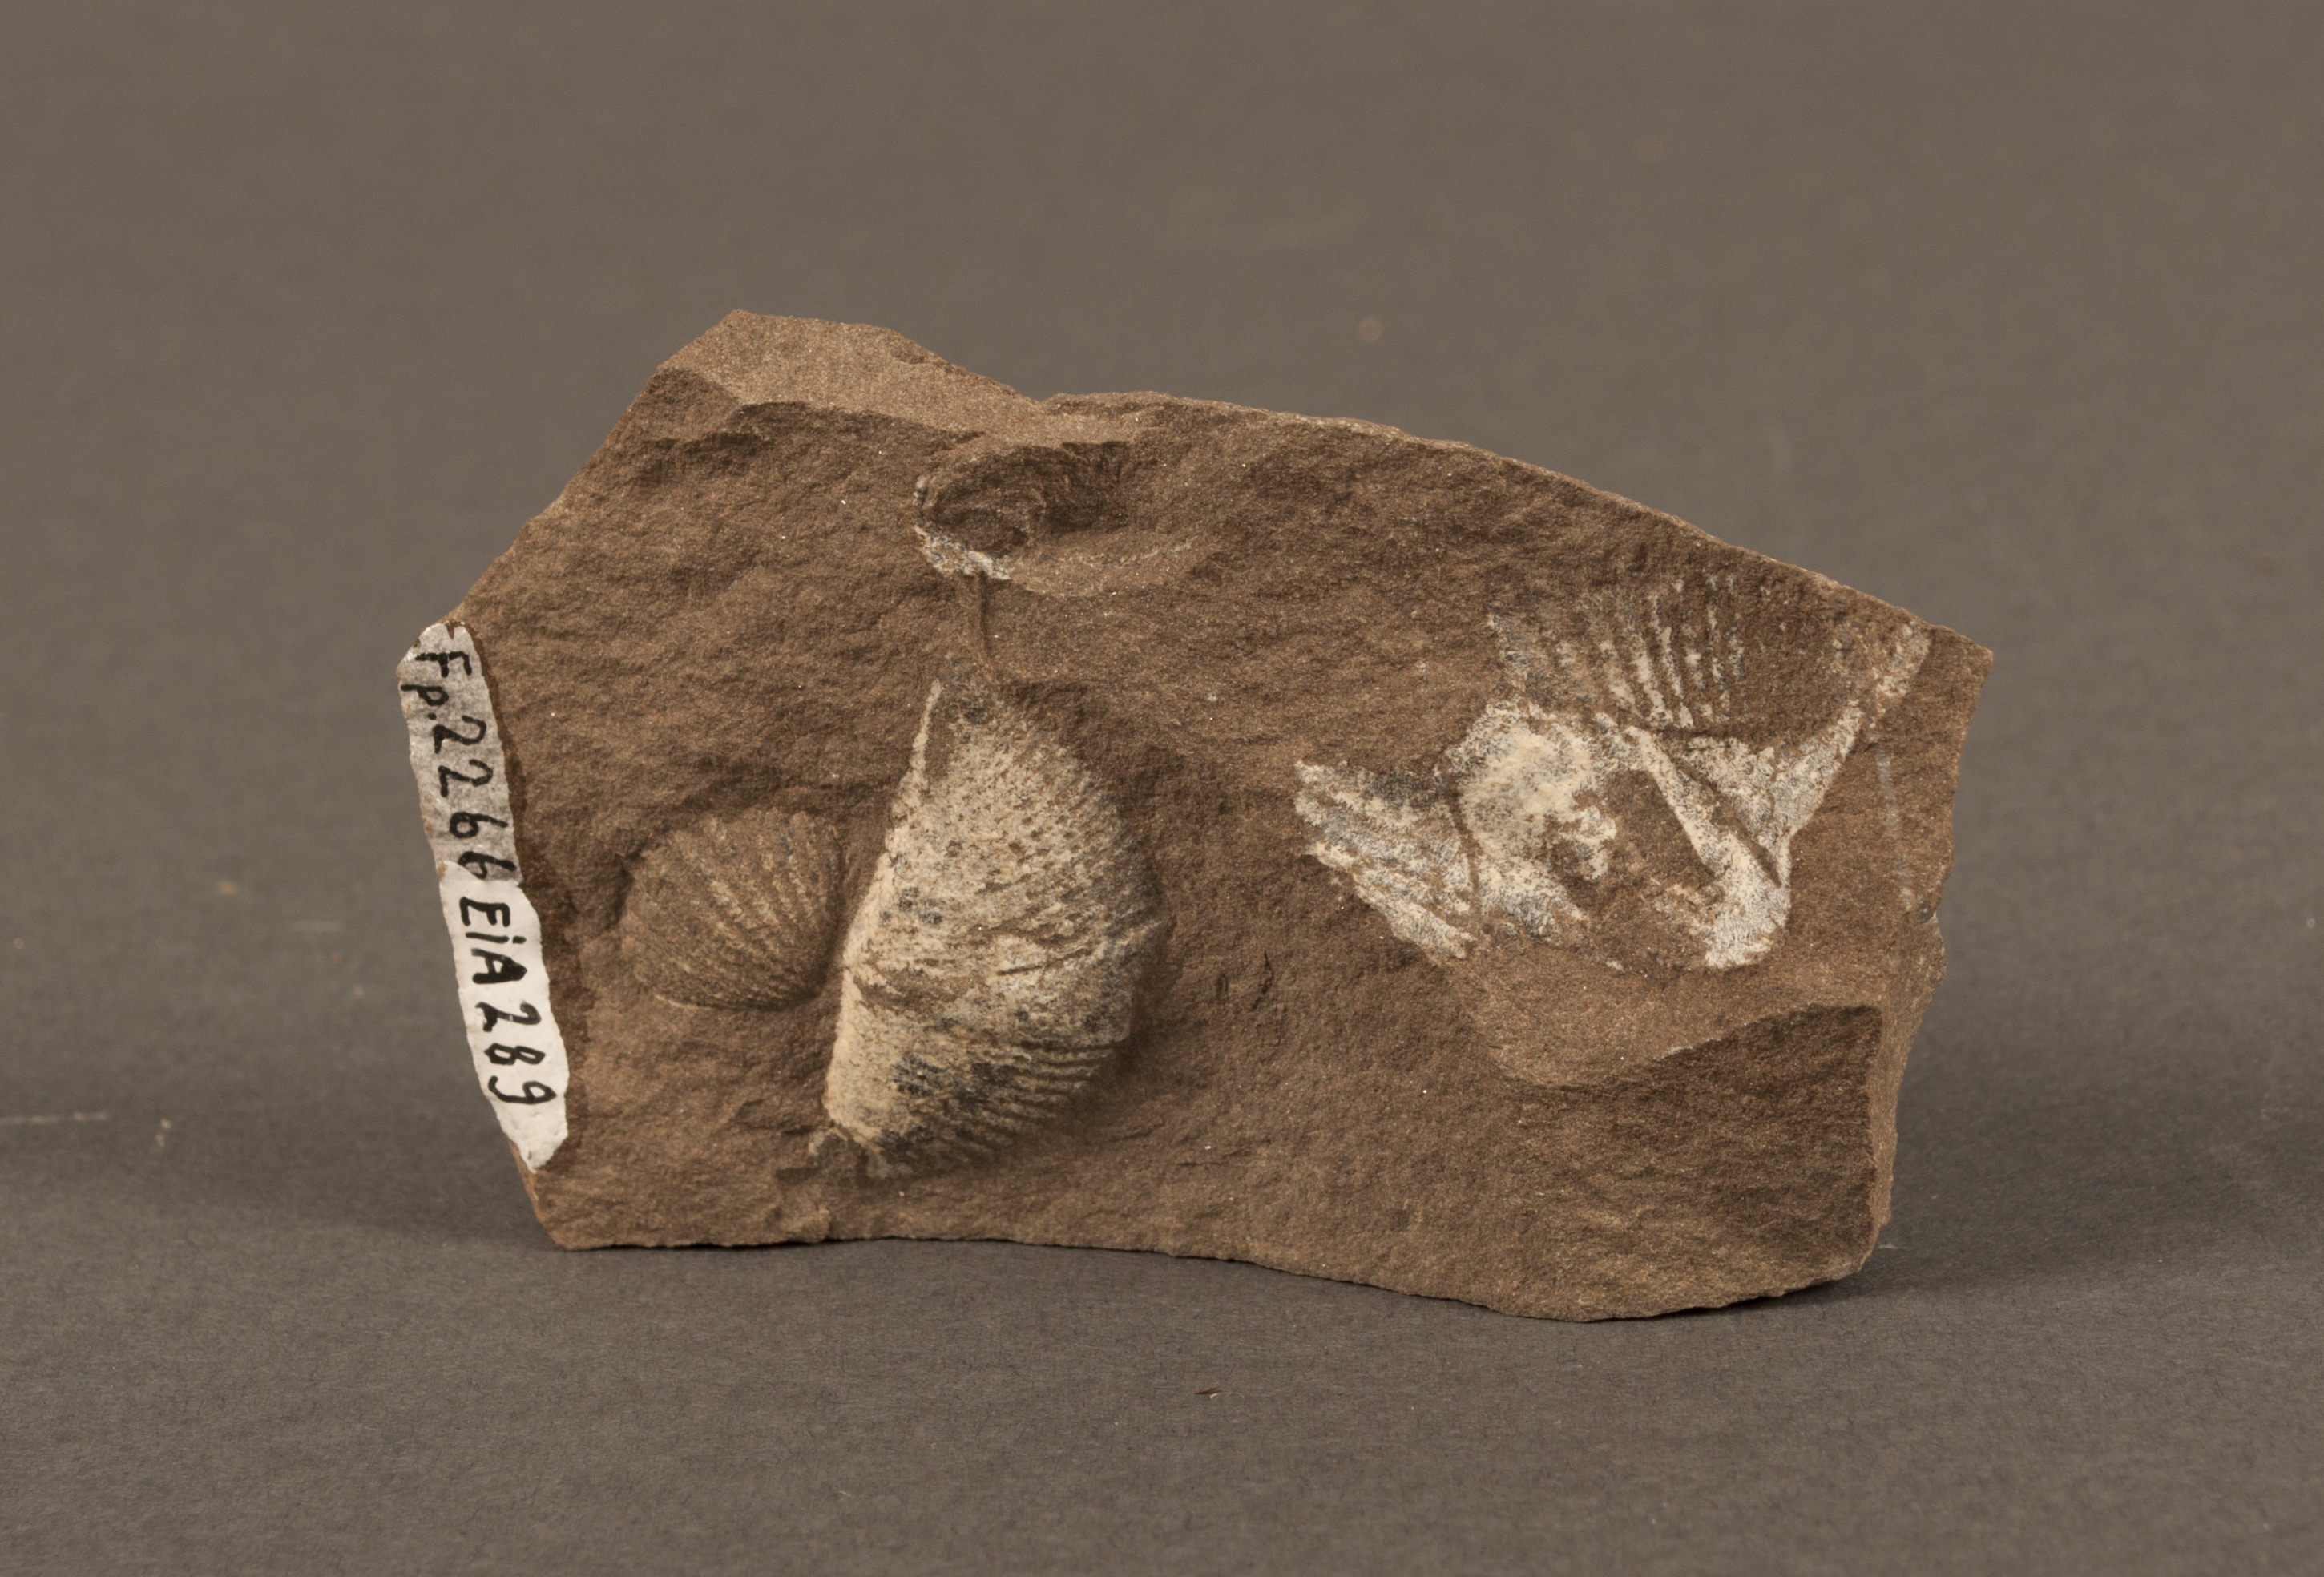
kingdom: Animalia
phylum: Brachiopoda
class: Rhynchonellata
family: Spinocyrtiidae
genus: Subcuspidella
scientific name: Subcuspidella
